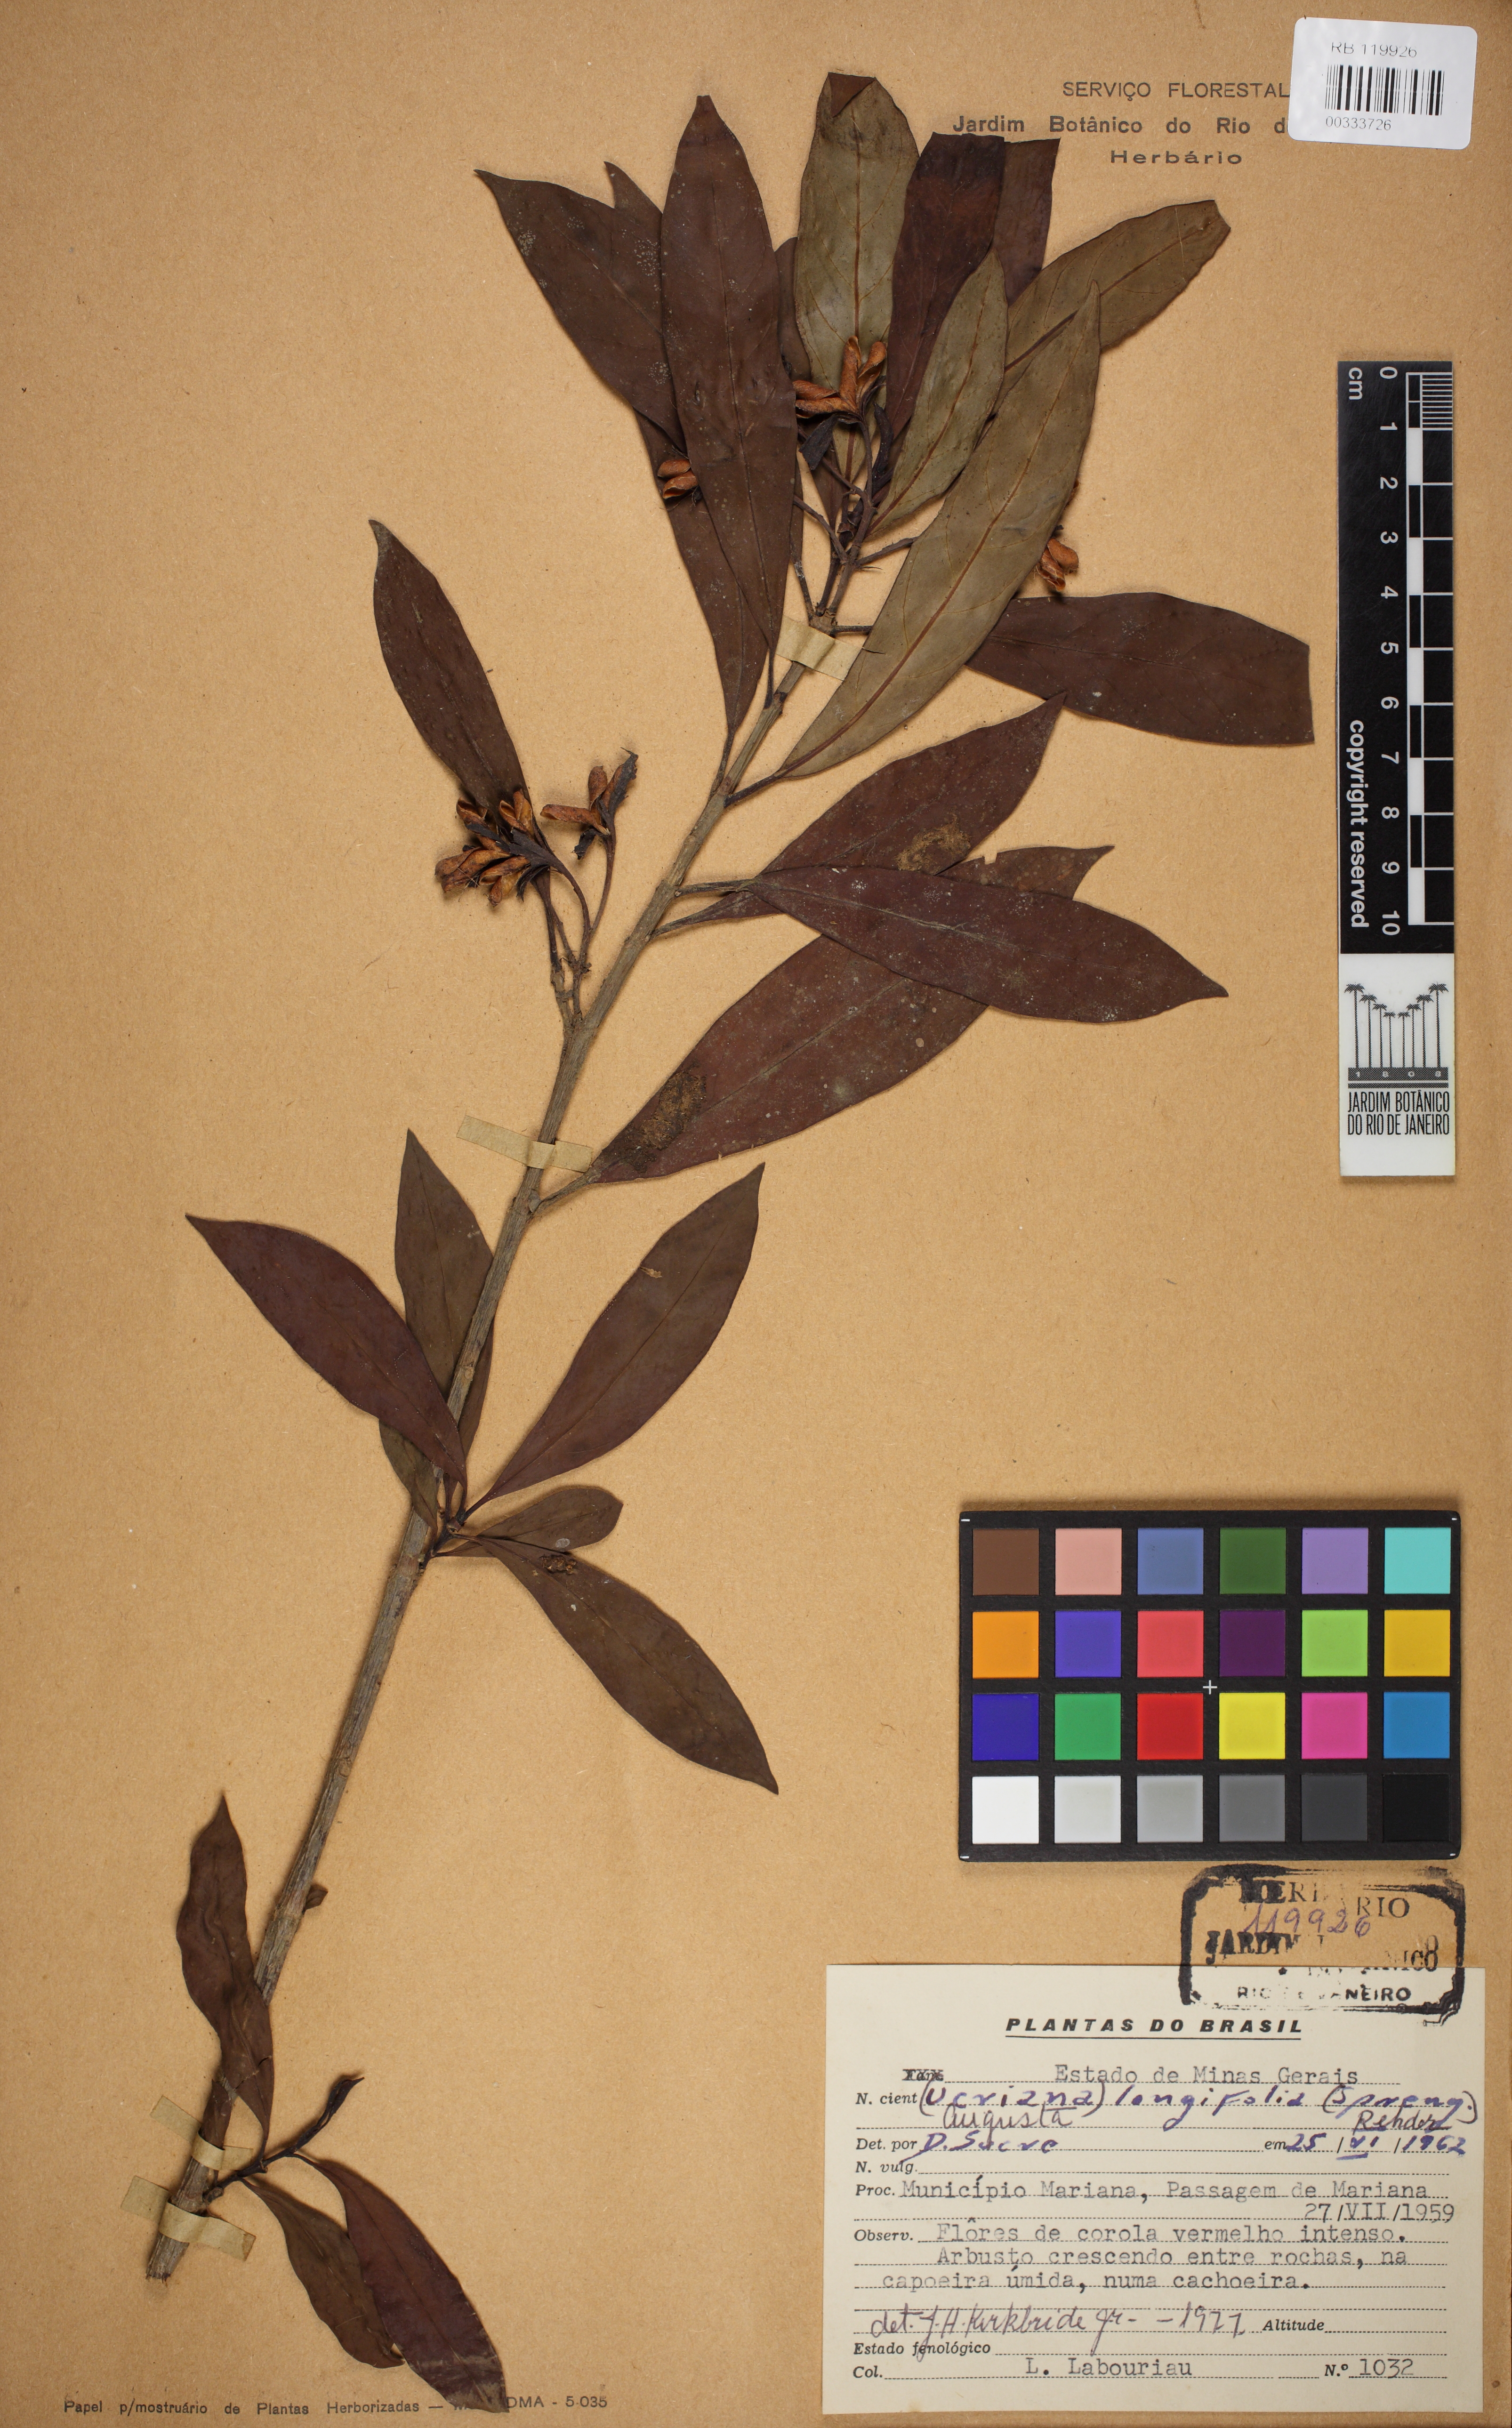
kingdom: Plantae
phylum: Tracheophyta
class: Magnoliopsida
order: Gentianales
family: Rubiaceae
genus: Augusta
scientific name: Augusta longifolia
